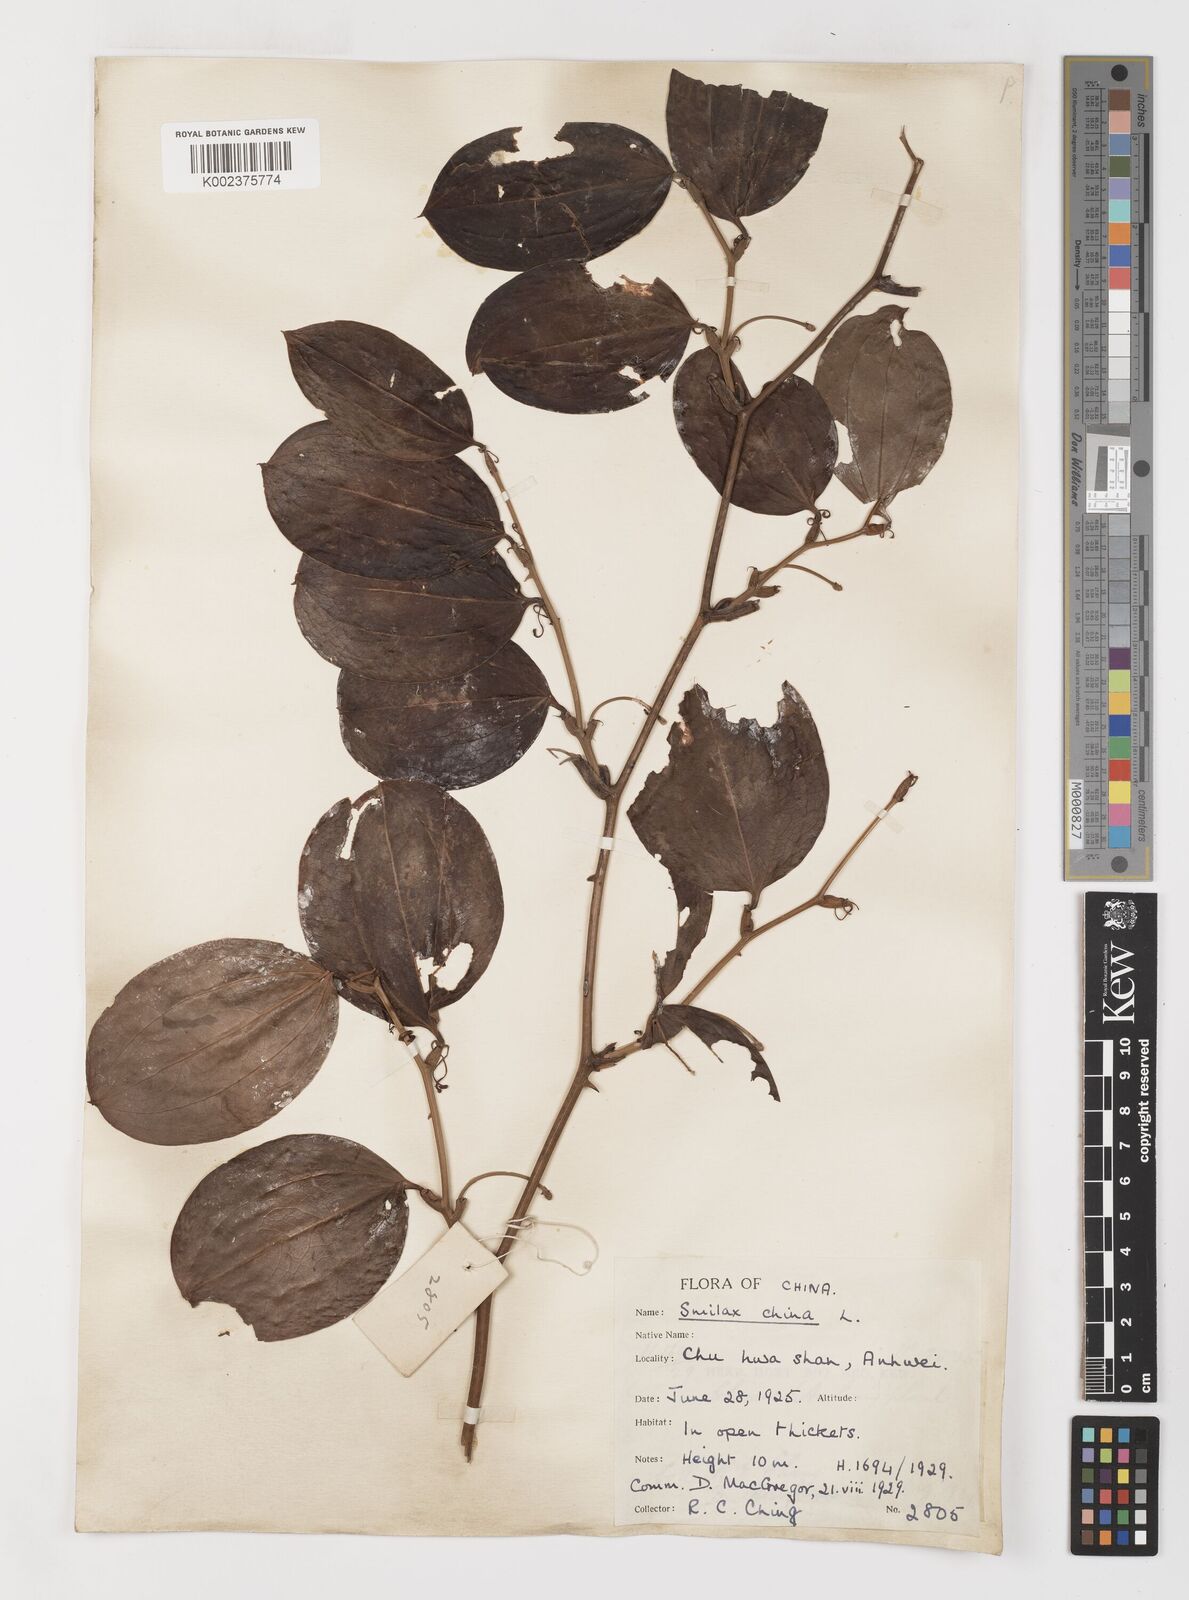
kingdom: Plantae
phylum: Tracheophyta
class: Liliopsida
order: Liliales
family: Smilacaceae
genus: Smilax
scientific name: Smilax china
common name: Chinaroot
